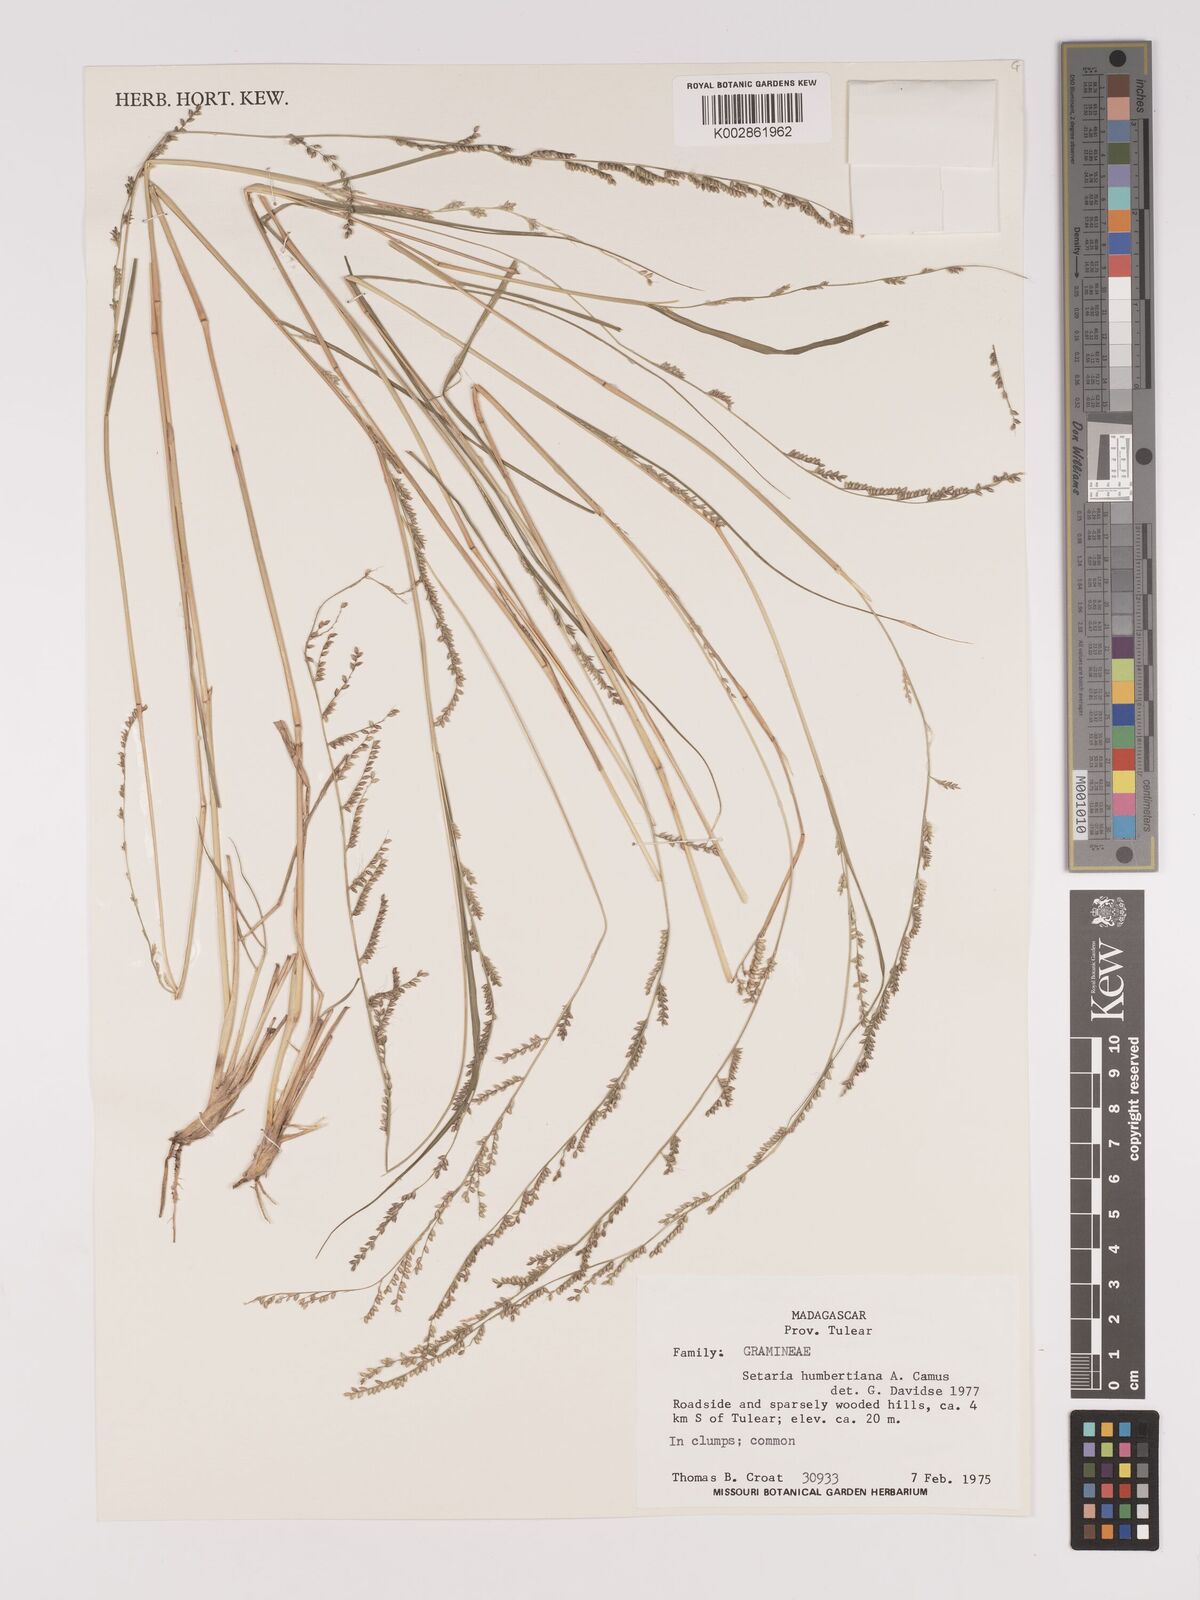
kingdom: Plantae
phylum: Tracheophyta
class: Liliopsida
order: Poales
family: Poaceae
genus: Setaria
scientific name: Setaria humbertiana
